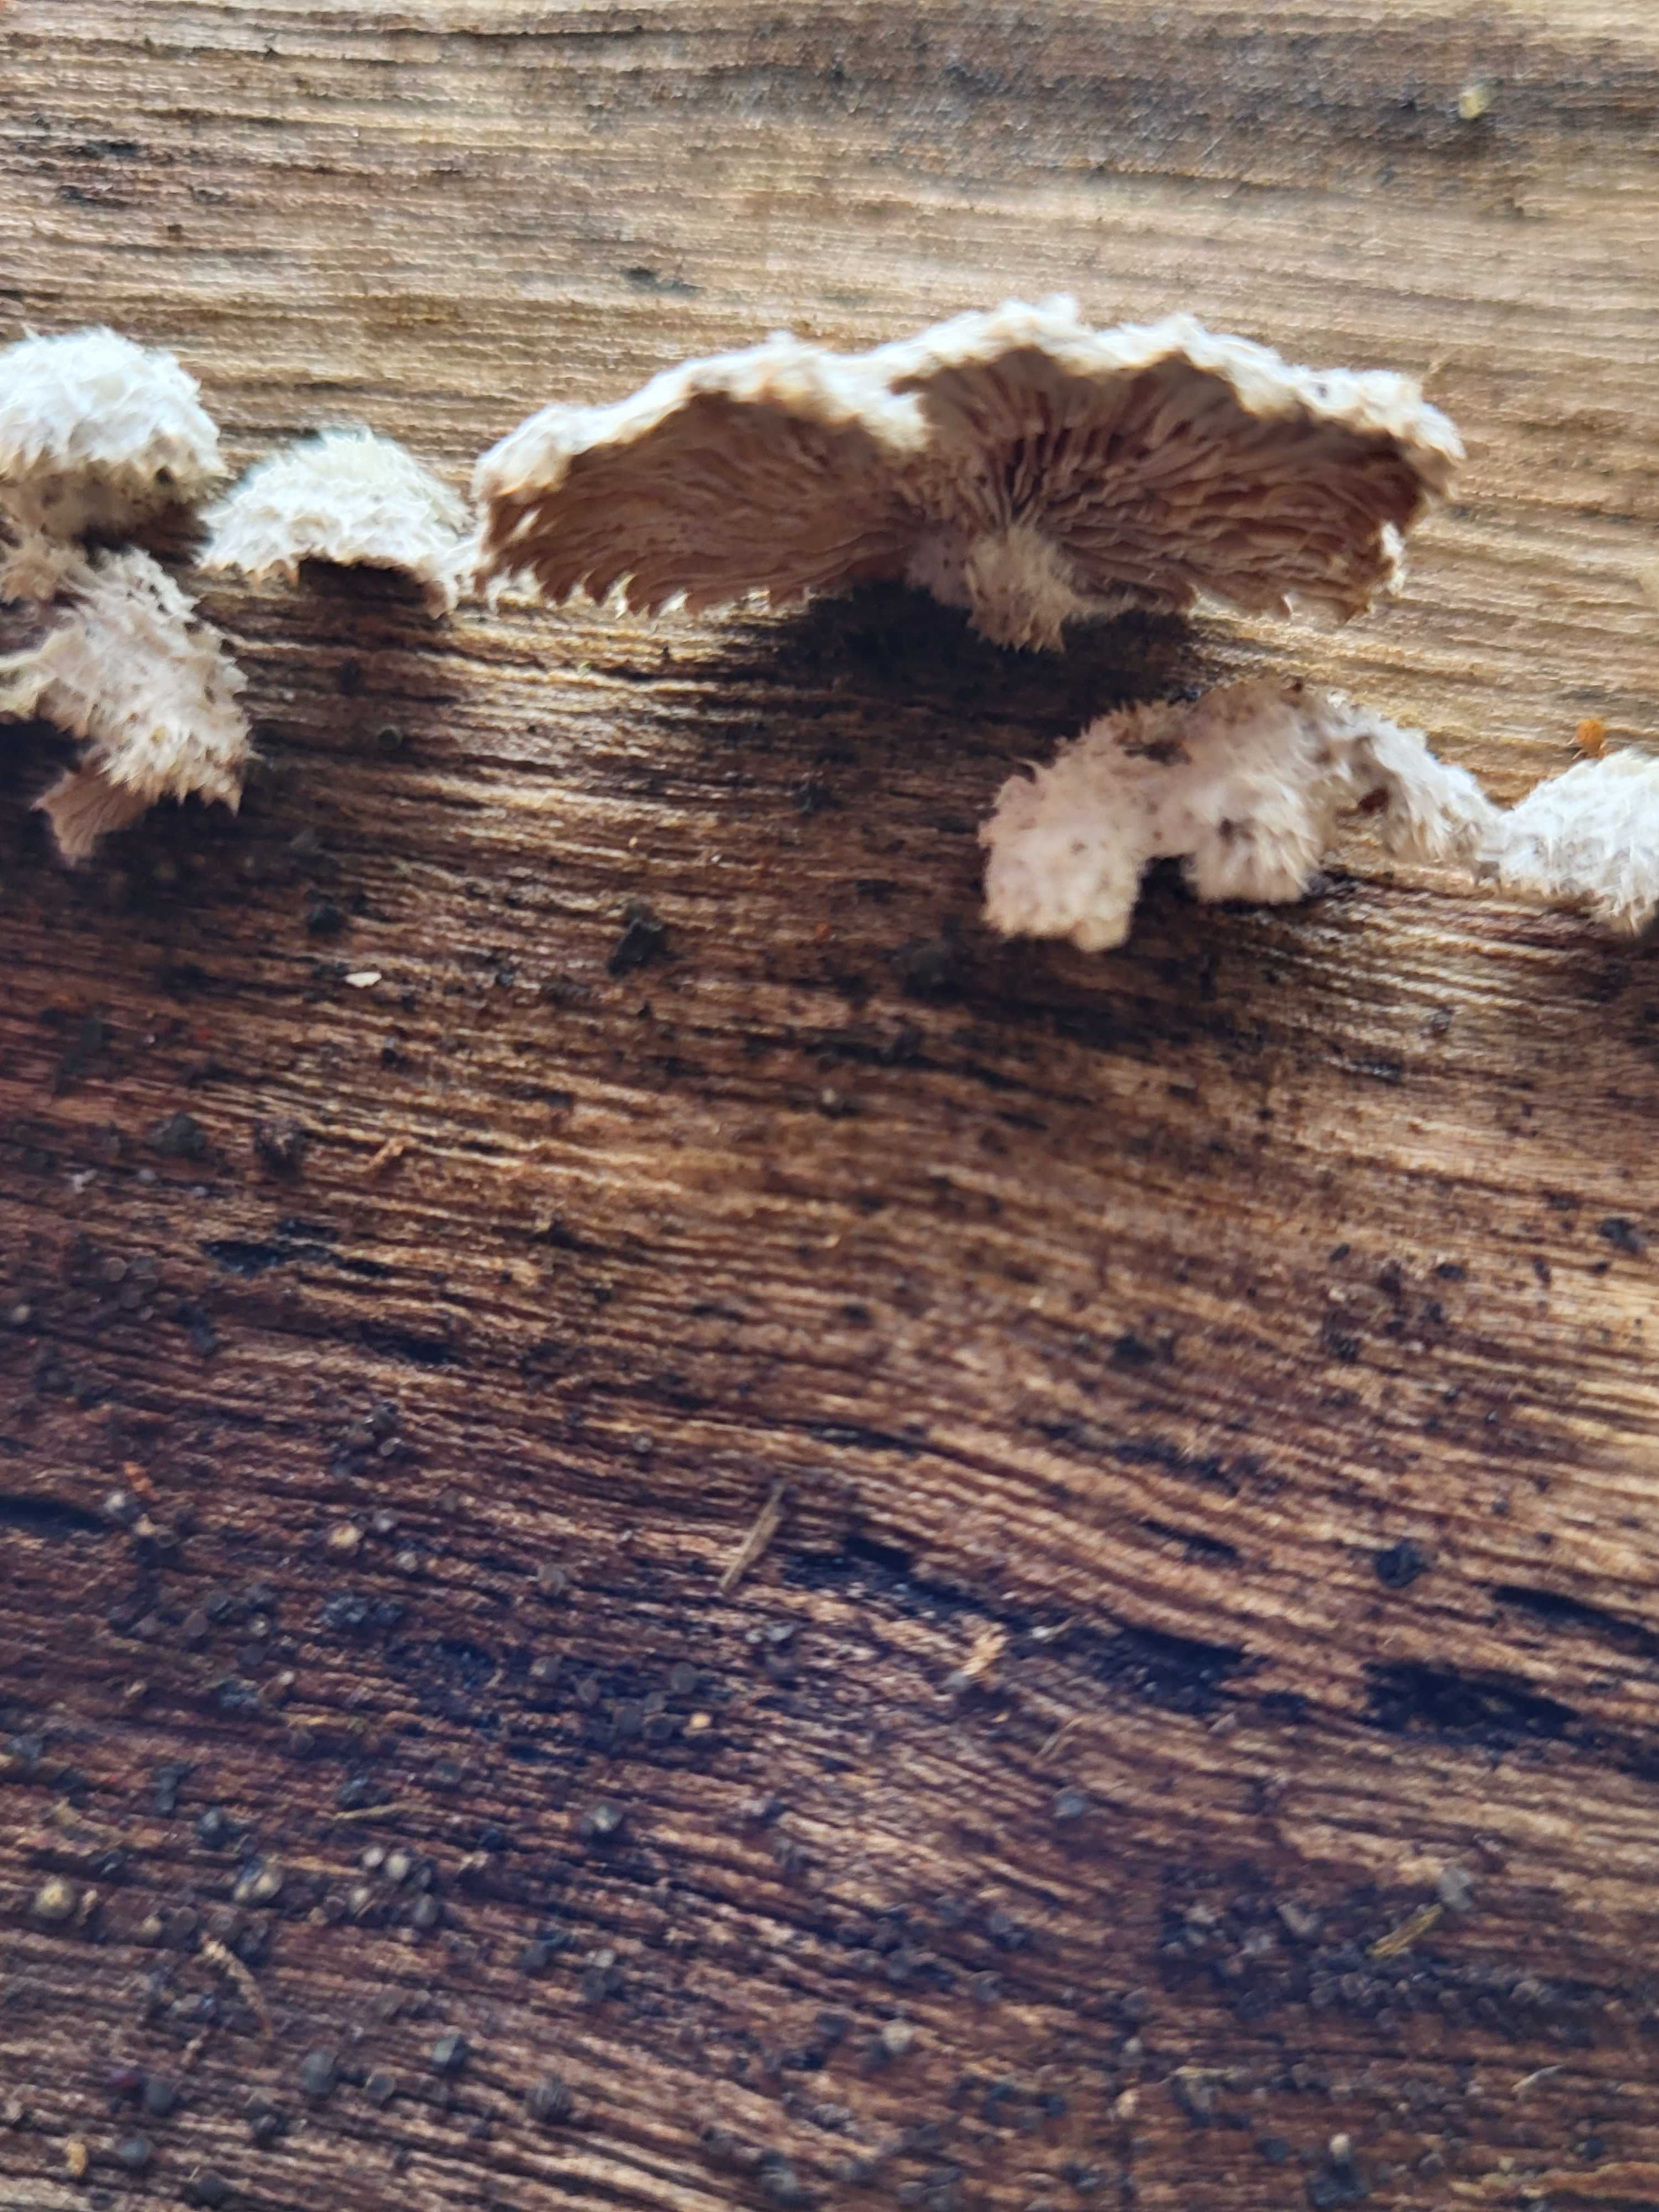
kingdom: Fungi
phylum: Basidiomycota
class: Agaricomycetes
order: Agaricales
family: Schizophyllaceae
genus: Schizophyllum
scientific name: Schizophyllum commune
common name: kløvblad
